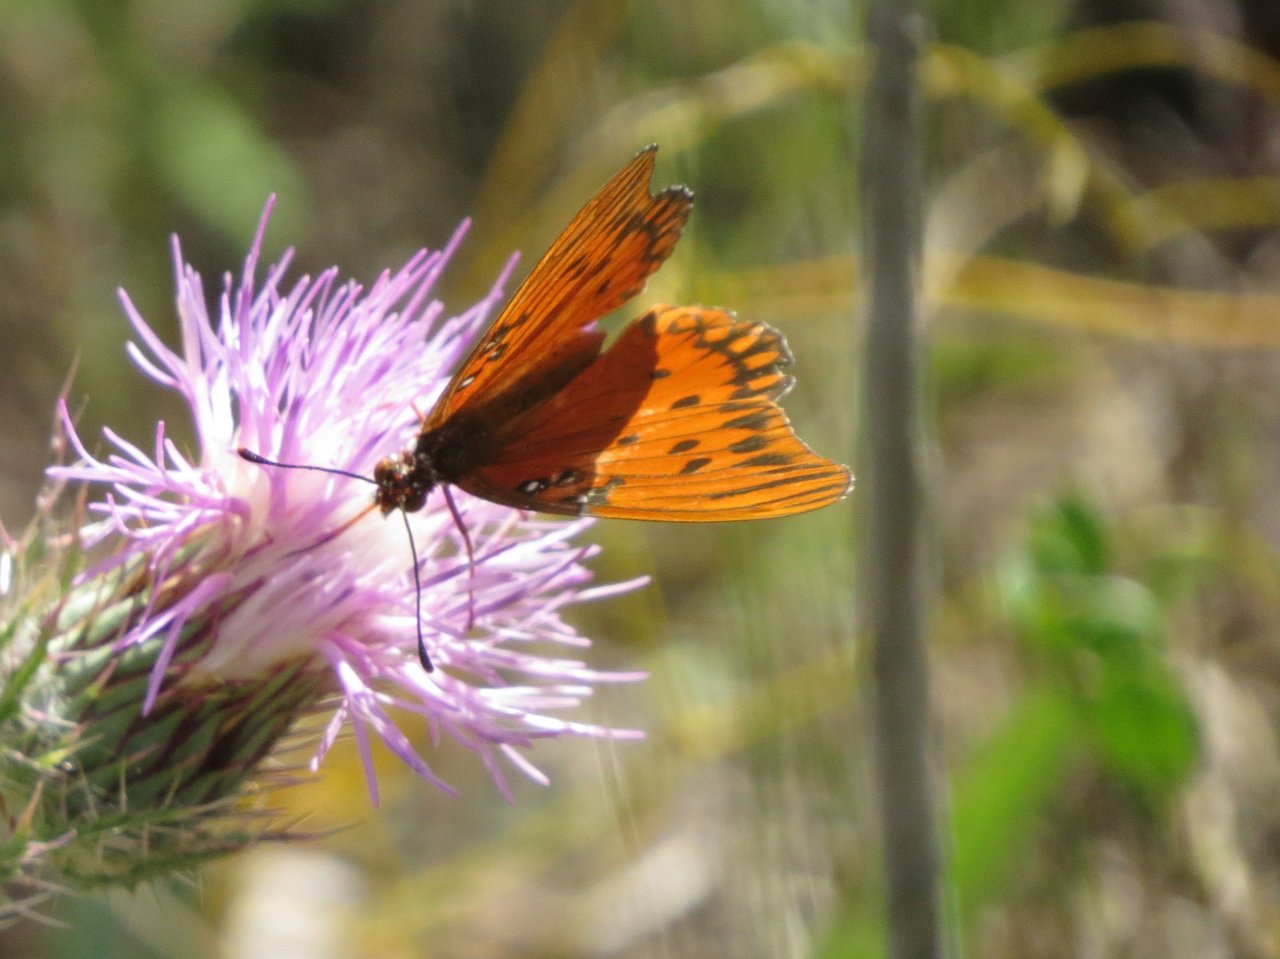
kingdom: Animalia
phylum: Arthropoda
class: Insecta
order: Lepidoptera
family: Nymphalidae
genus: Dione
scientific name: Dione vanillae
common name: Gulf Fritillary
